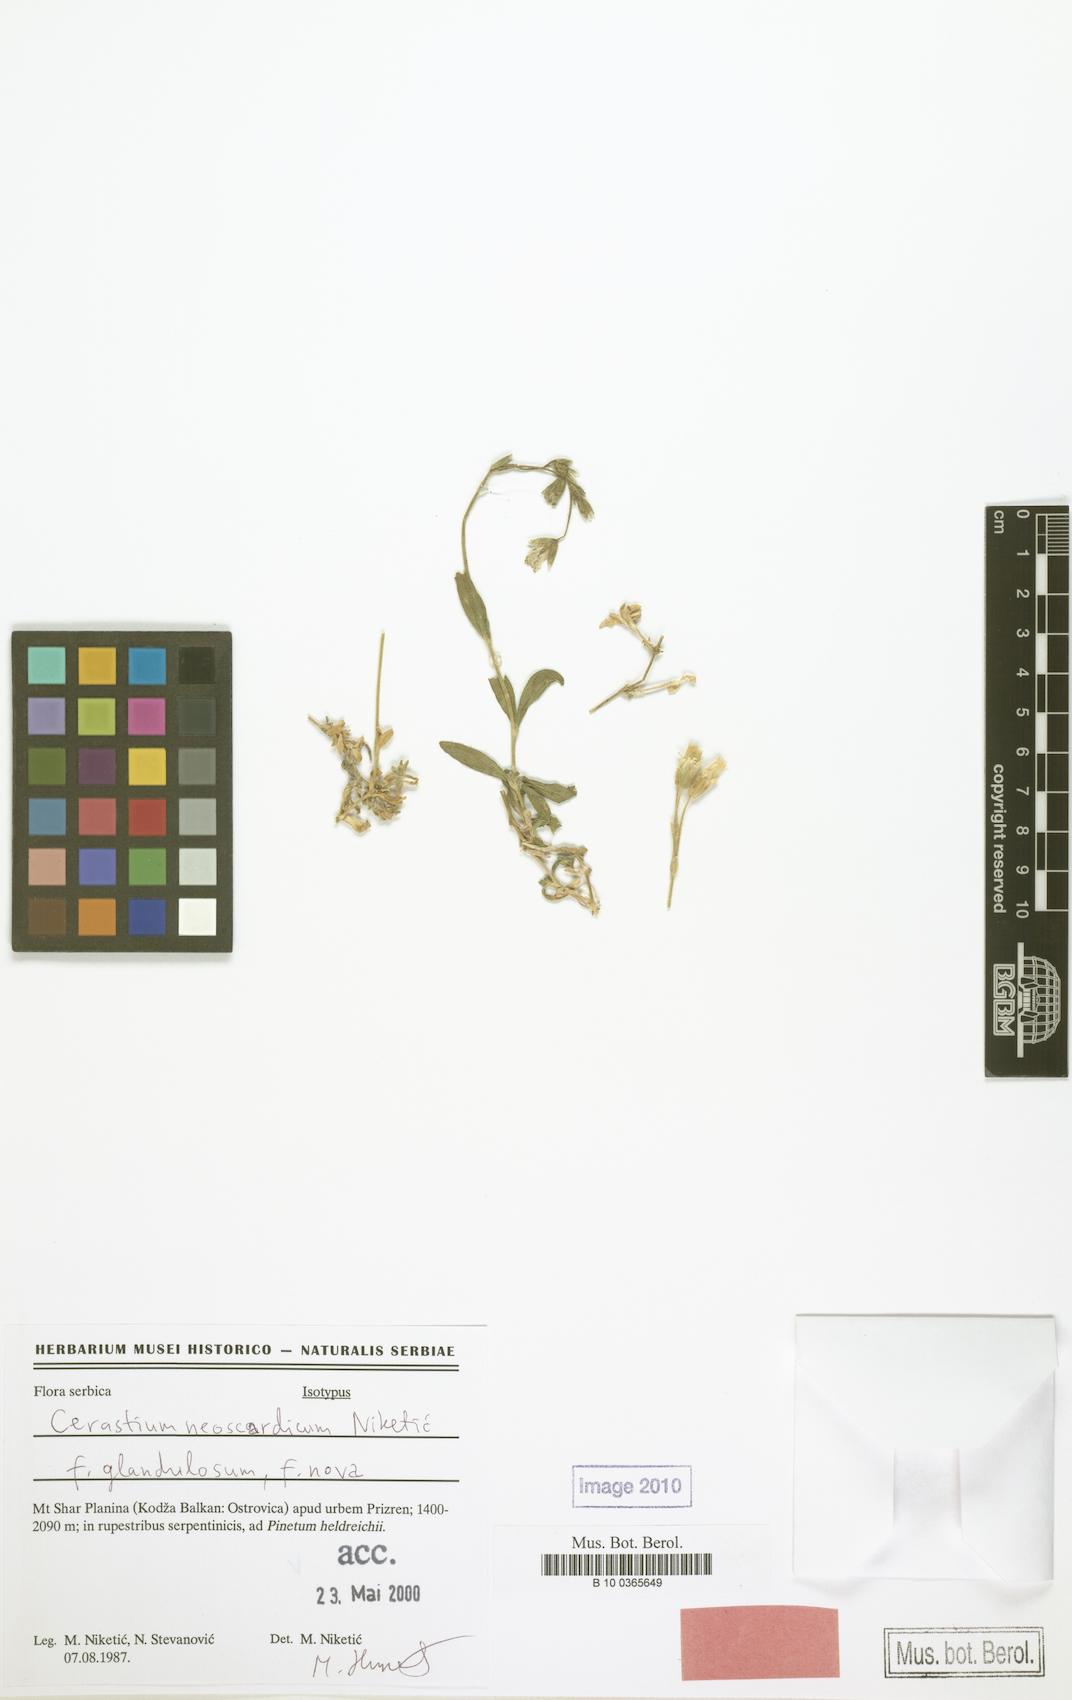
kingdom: Plantae
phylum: Tracheophyta
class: Magnoliopsida
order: Caryophyllales
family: Caryophyllaceae
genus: Cerastium
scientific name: Cerastium neoscardicum
